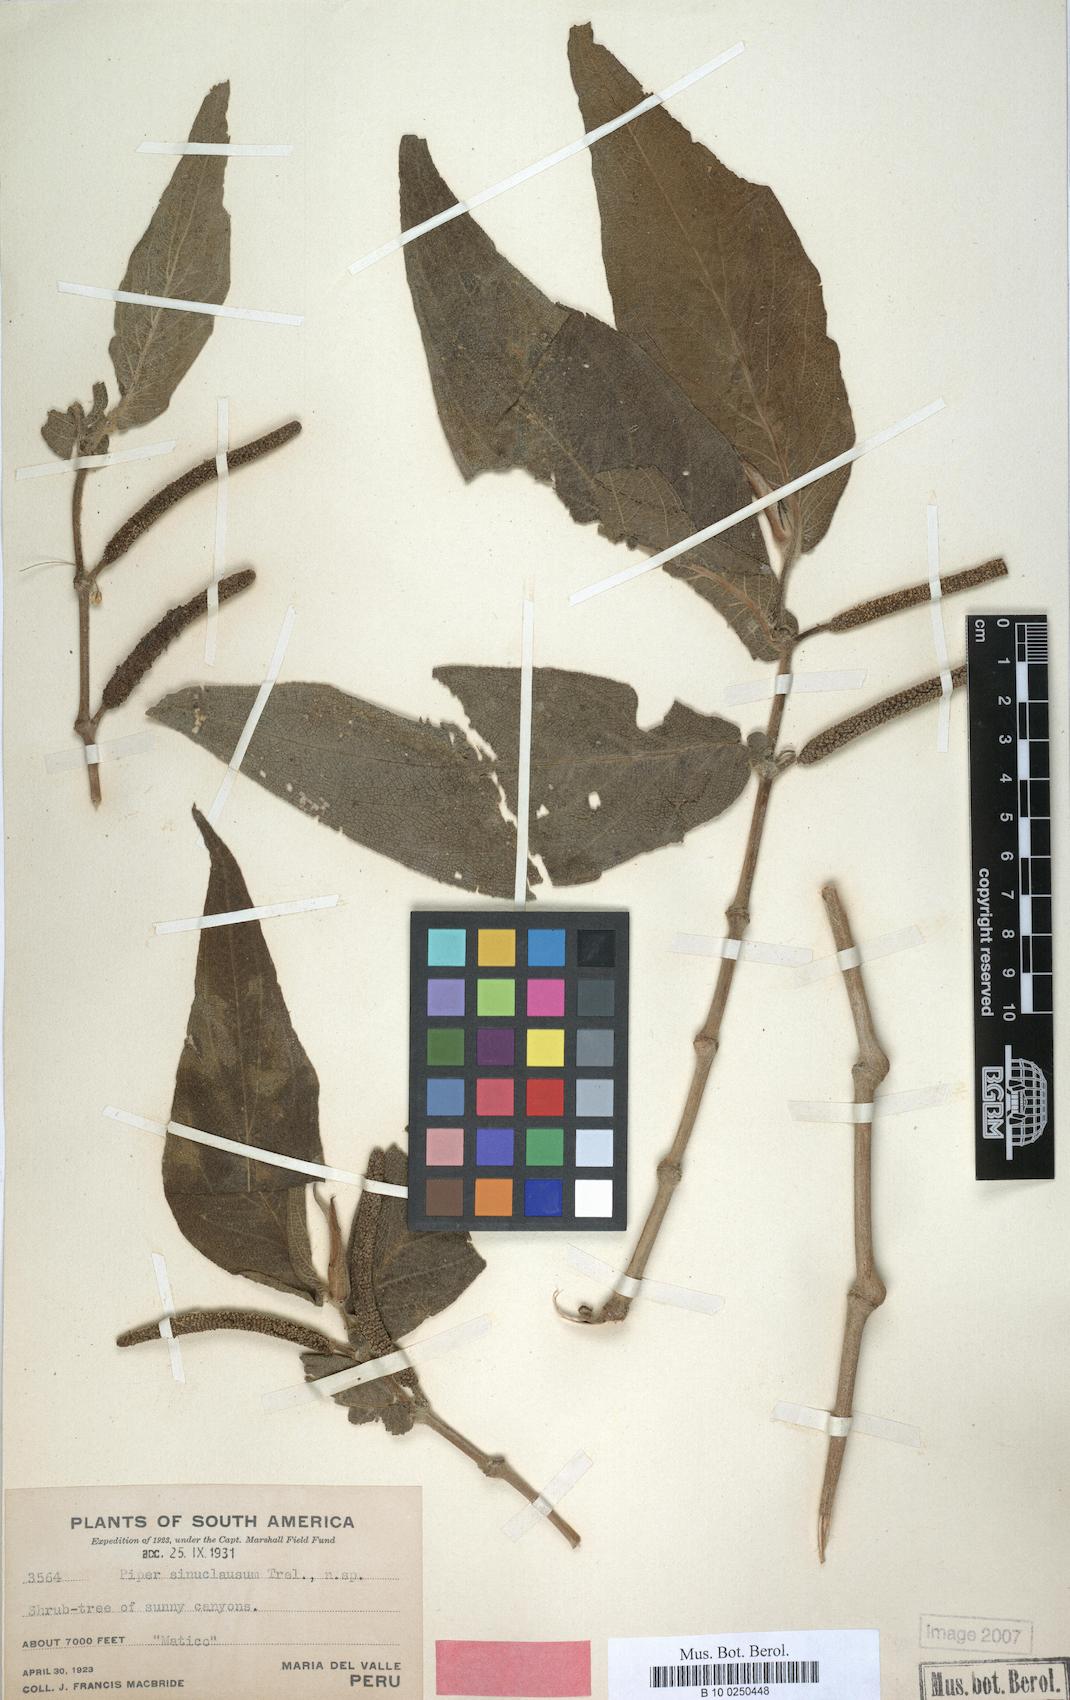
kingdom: Plantae
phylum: Tracheophyta
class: Magnoliopsida
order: Piperales
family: Piperaceae
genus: Piper
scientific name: Piper sinuclausum
